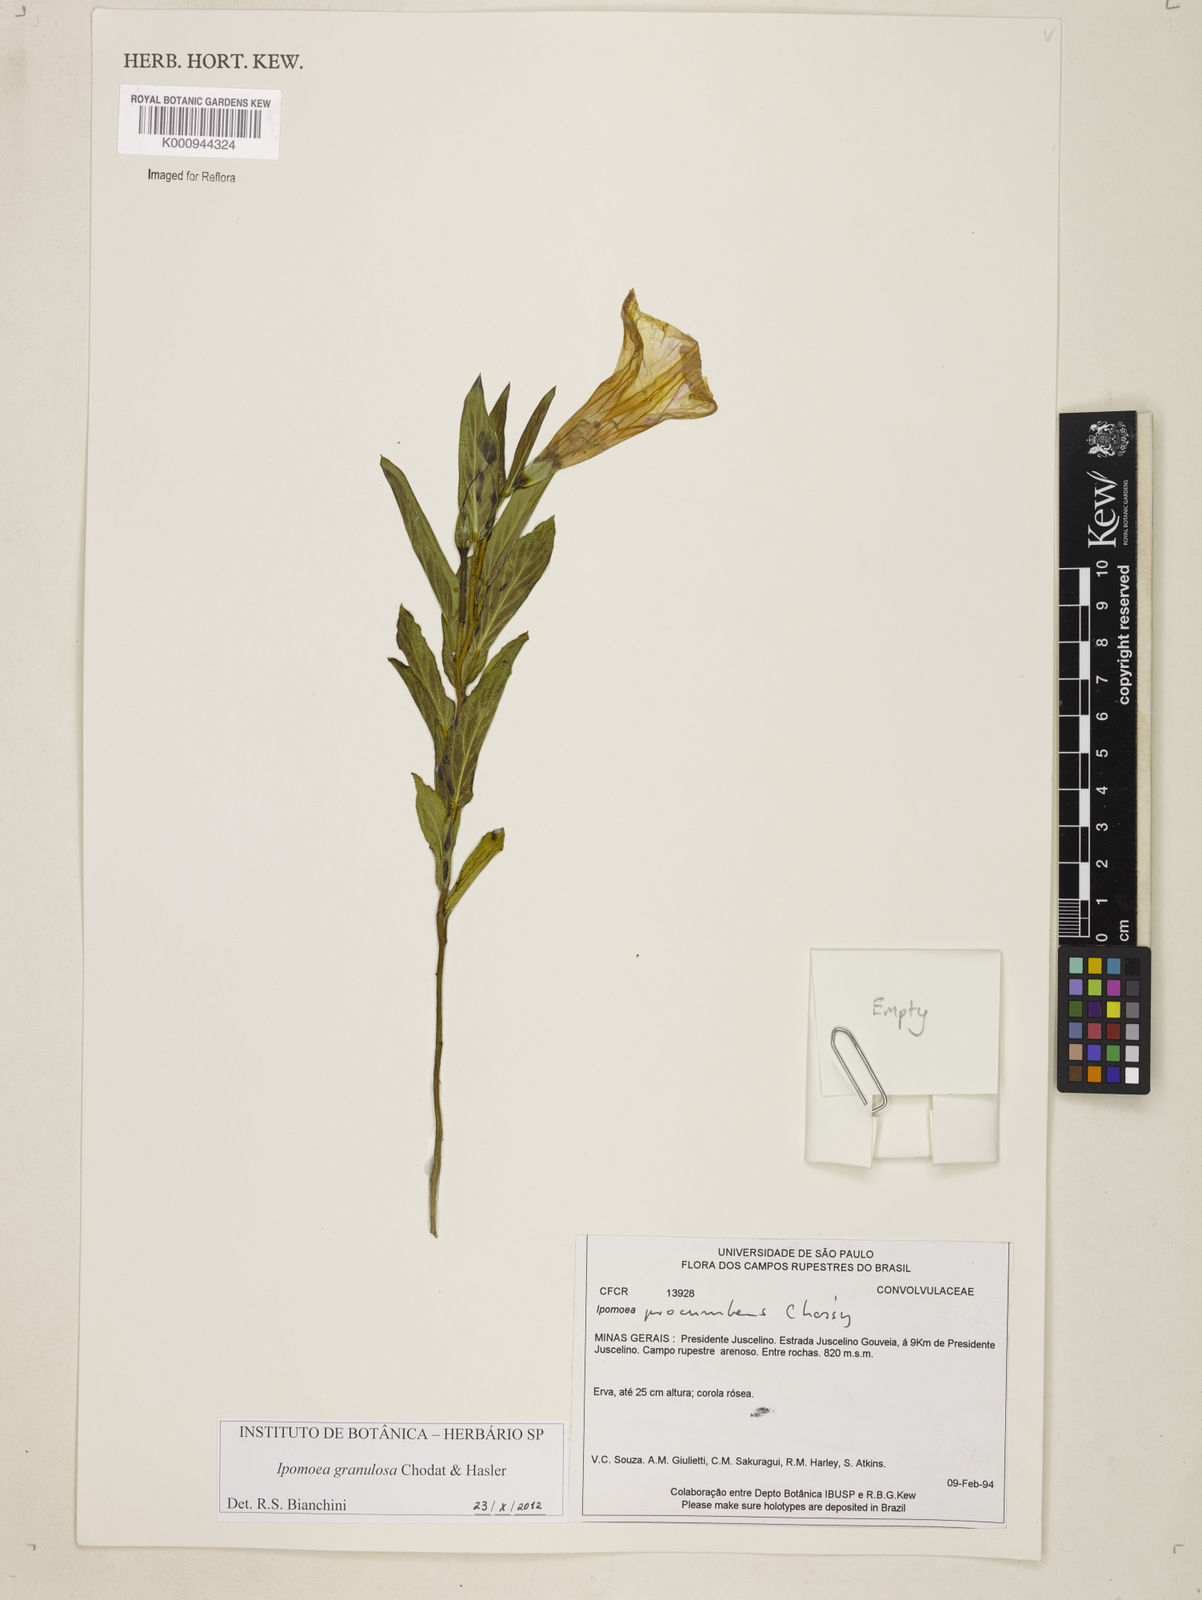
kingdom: Plantae
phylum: Tracheophyta
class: Magnoliopsida
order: Solanales
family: Convolvulaceae
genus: Ipomoea
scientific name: Ipomoea
